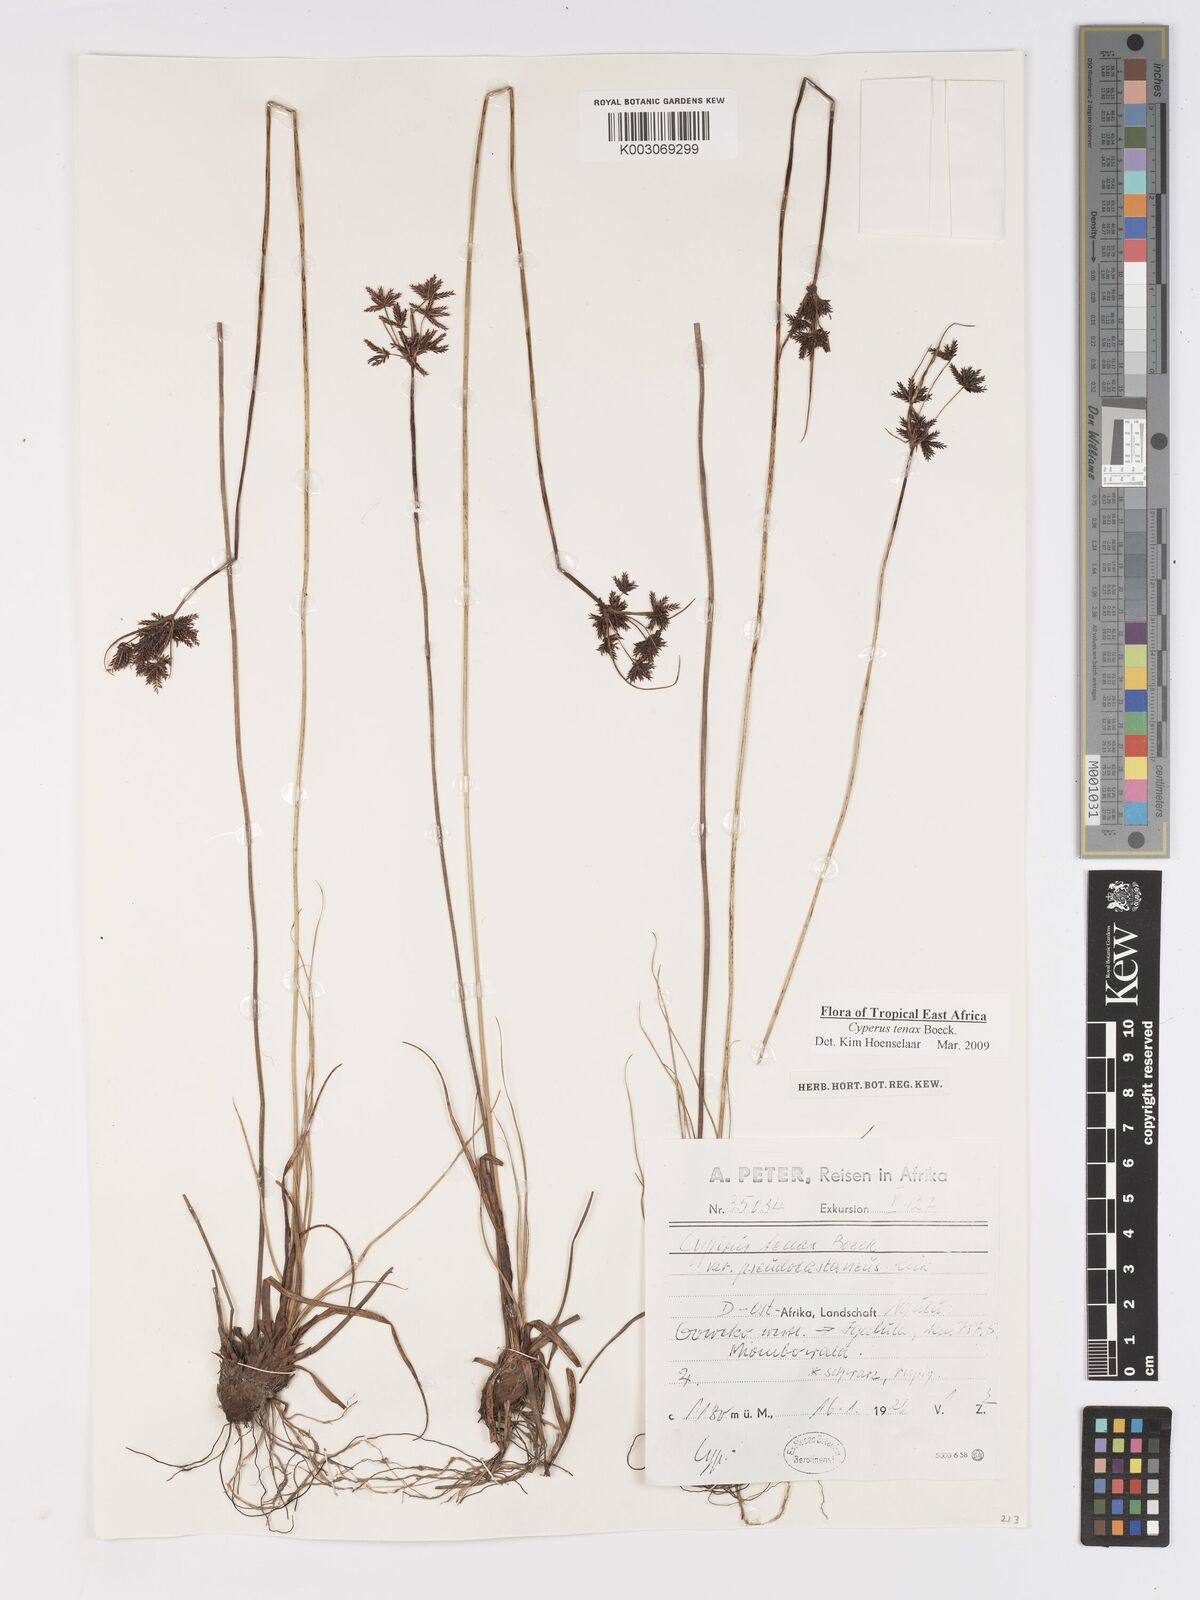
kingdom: Plantae
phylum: Tracheophyta
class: Liliopsida
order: Poales
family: Cyperaceae
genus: Cyperus
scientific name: Cyperus tenax
